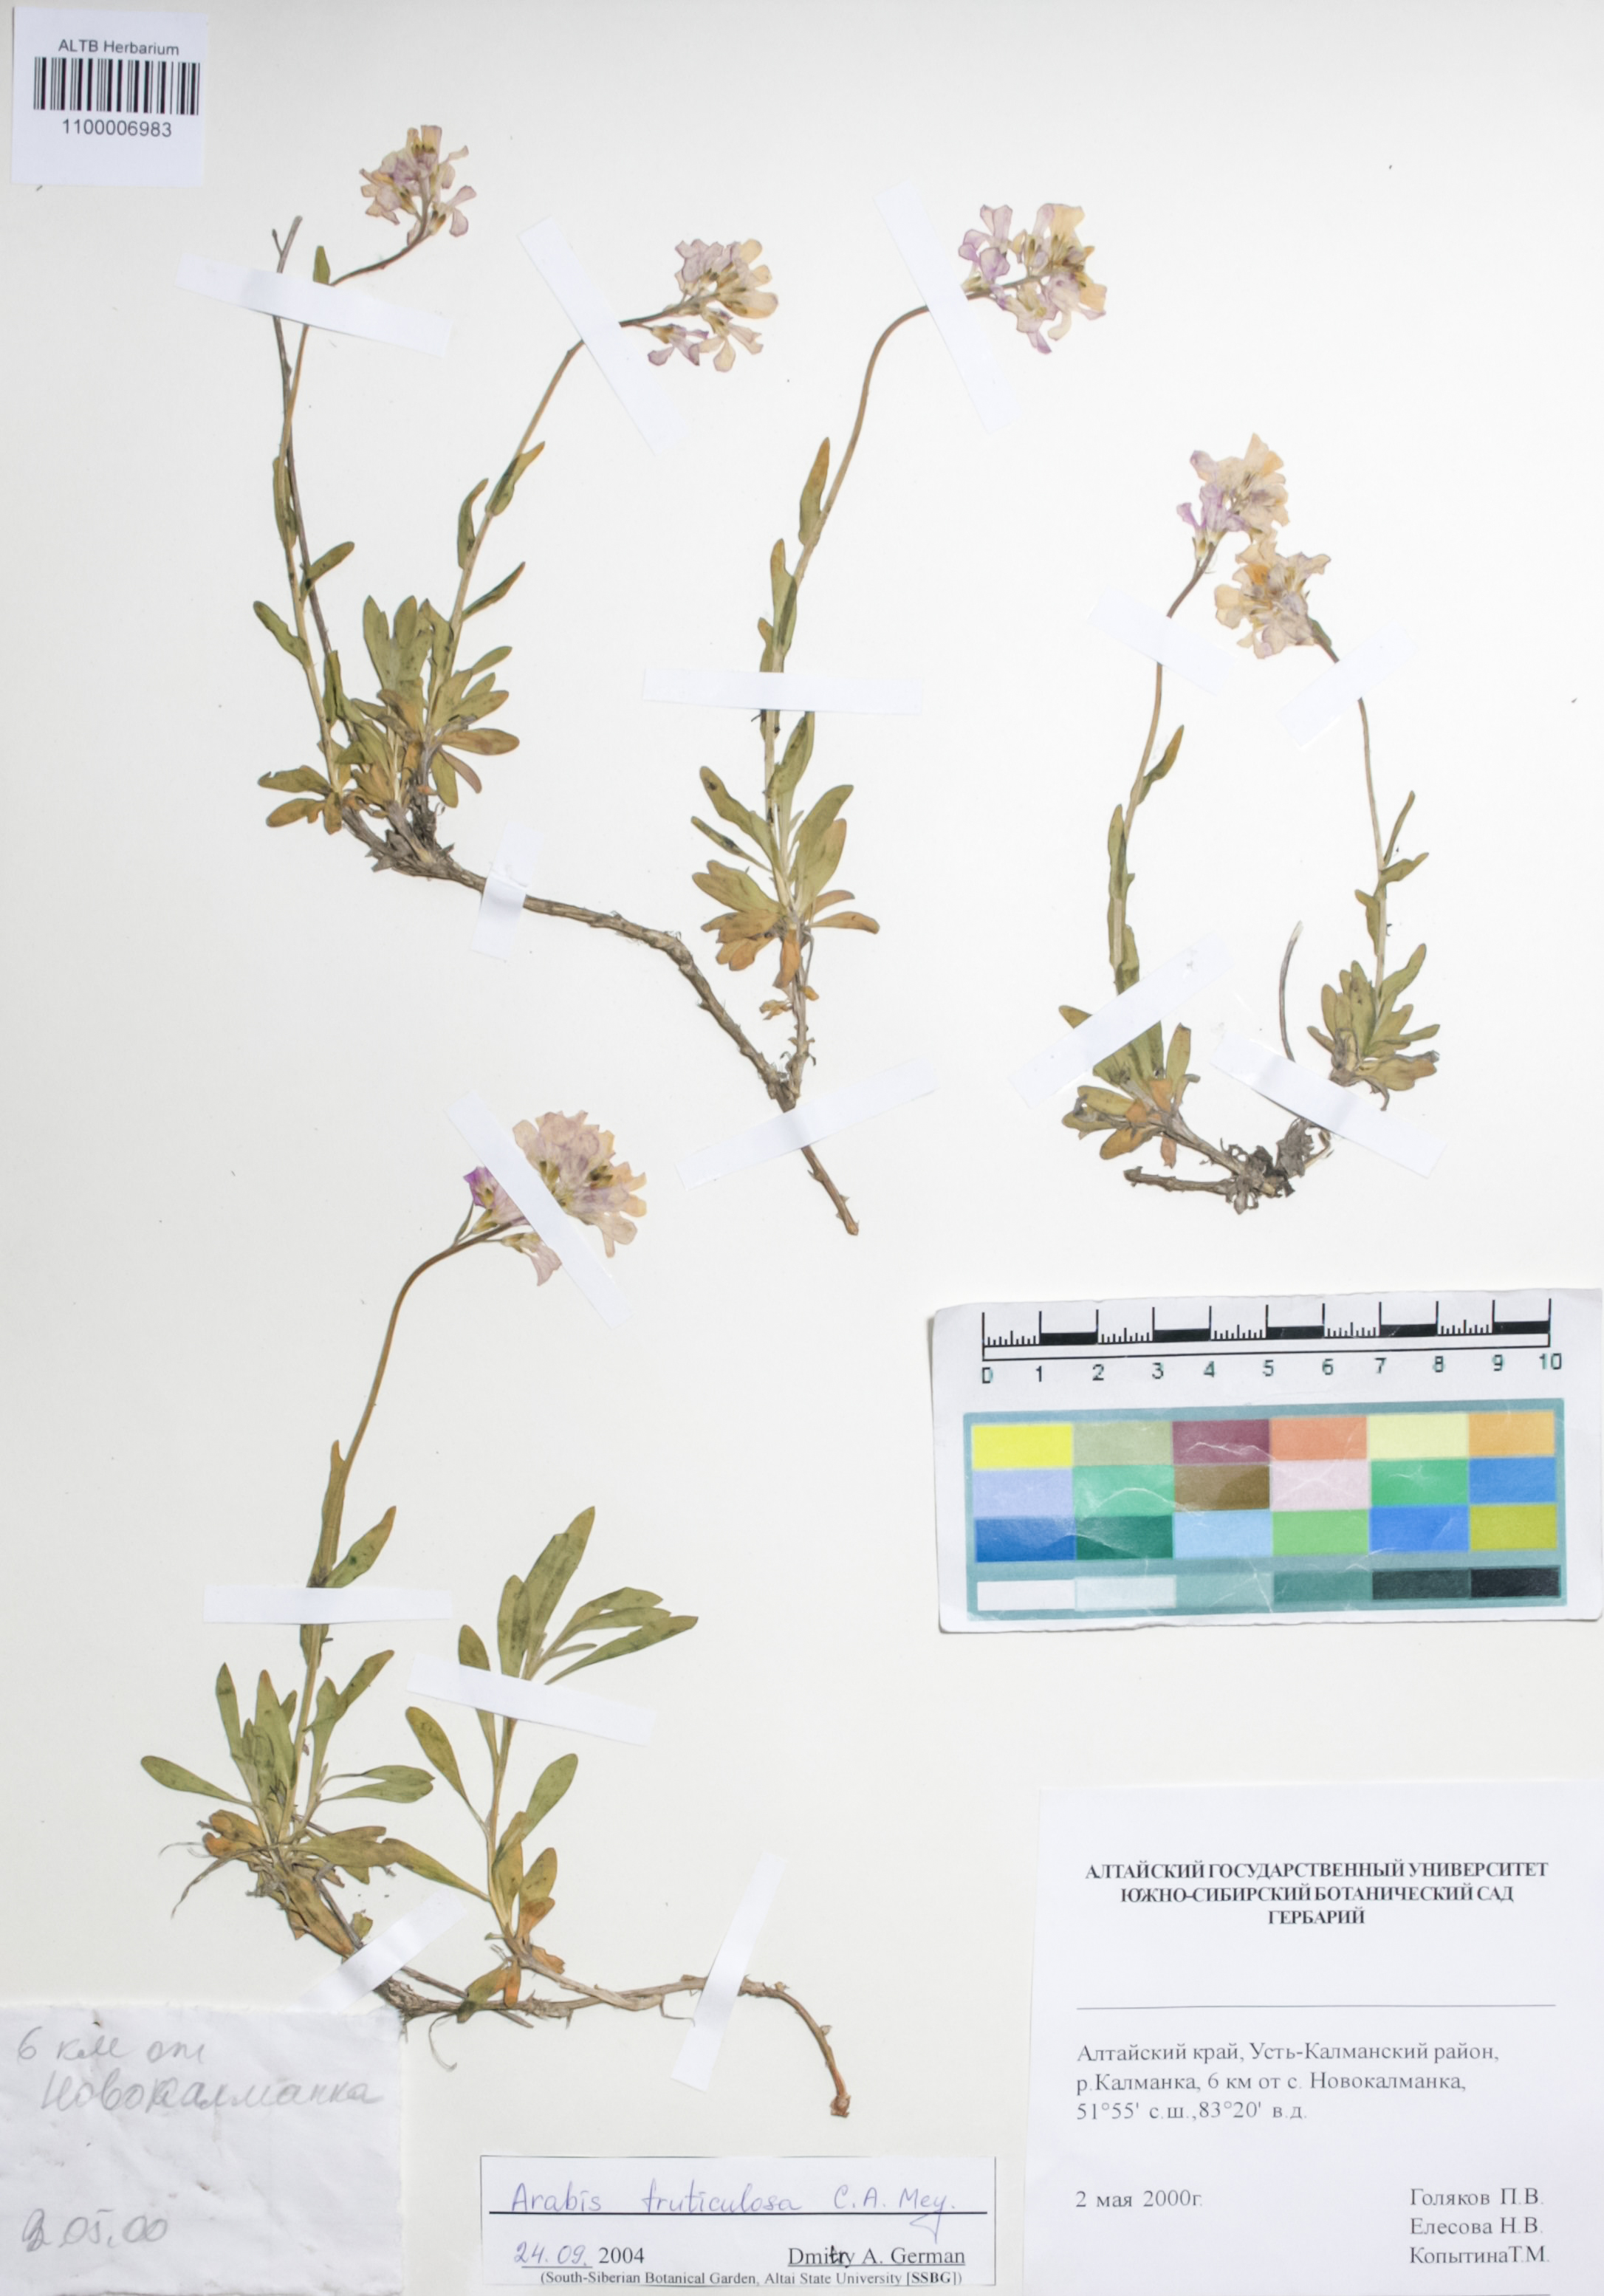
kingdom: Plantae
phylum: Tracheophyta
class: Magnoliopsida
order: Brassicales
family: Brassicaceae
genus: Dendroarabis
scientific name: Dendroarabis fruticulosa
